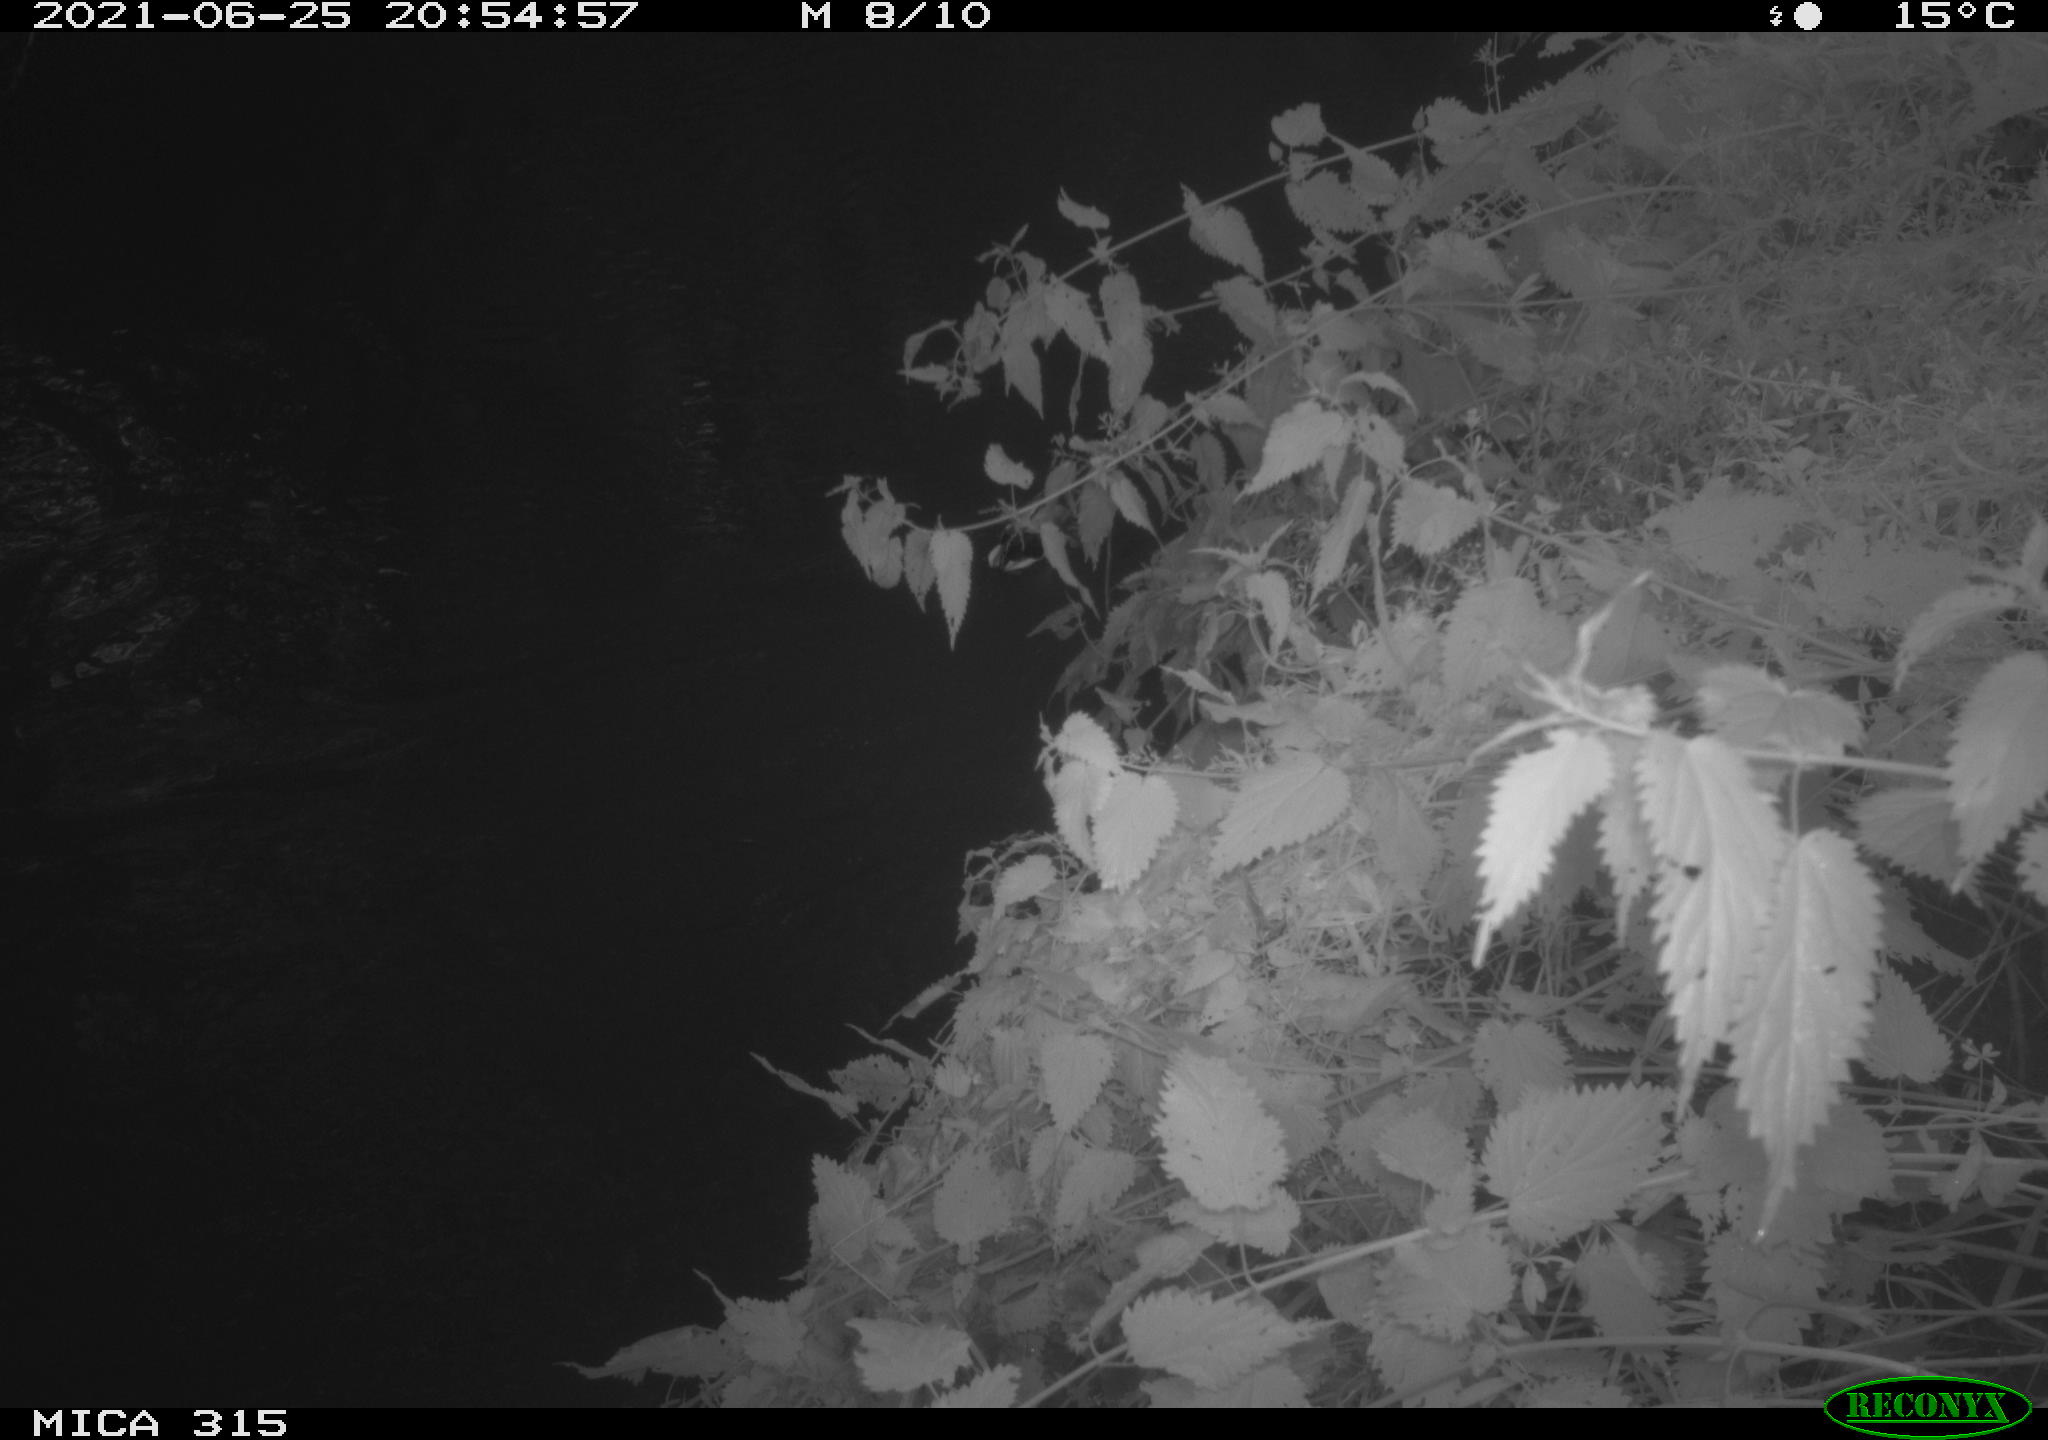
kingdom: Animalia
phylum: Chordata
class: Aves
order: Anseriformes
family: Anatidae
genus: Anas
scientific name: Anas platyrhynchos
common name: Mallard
